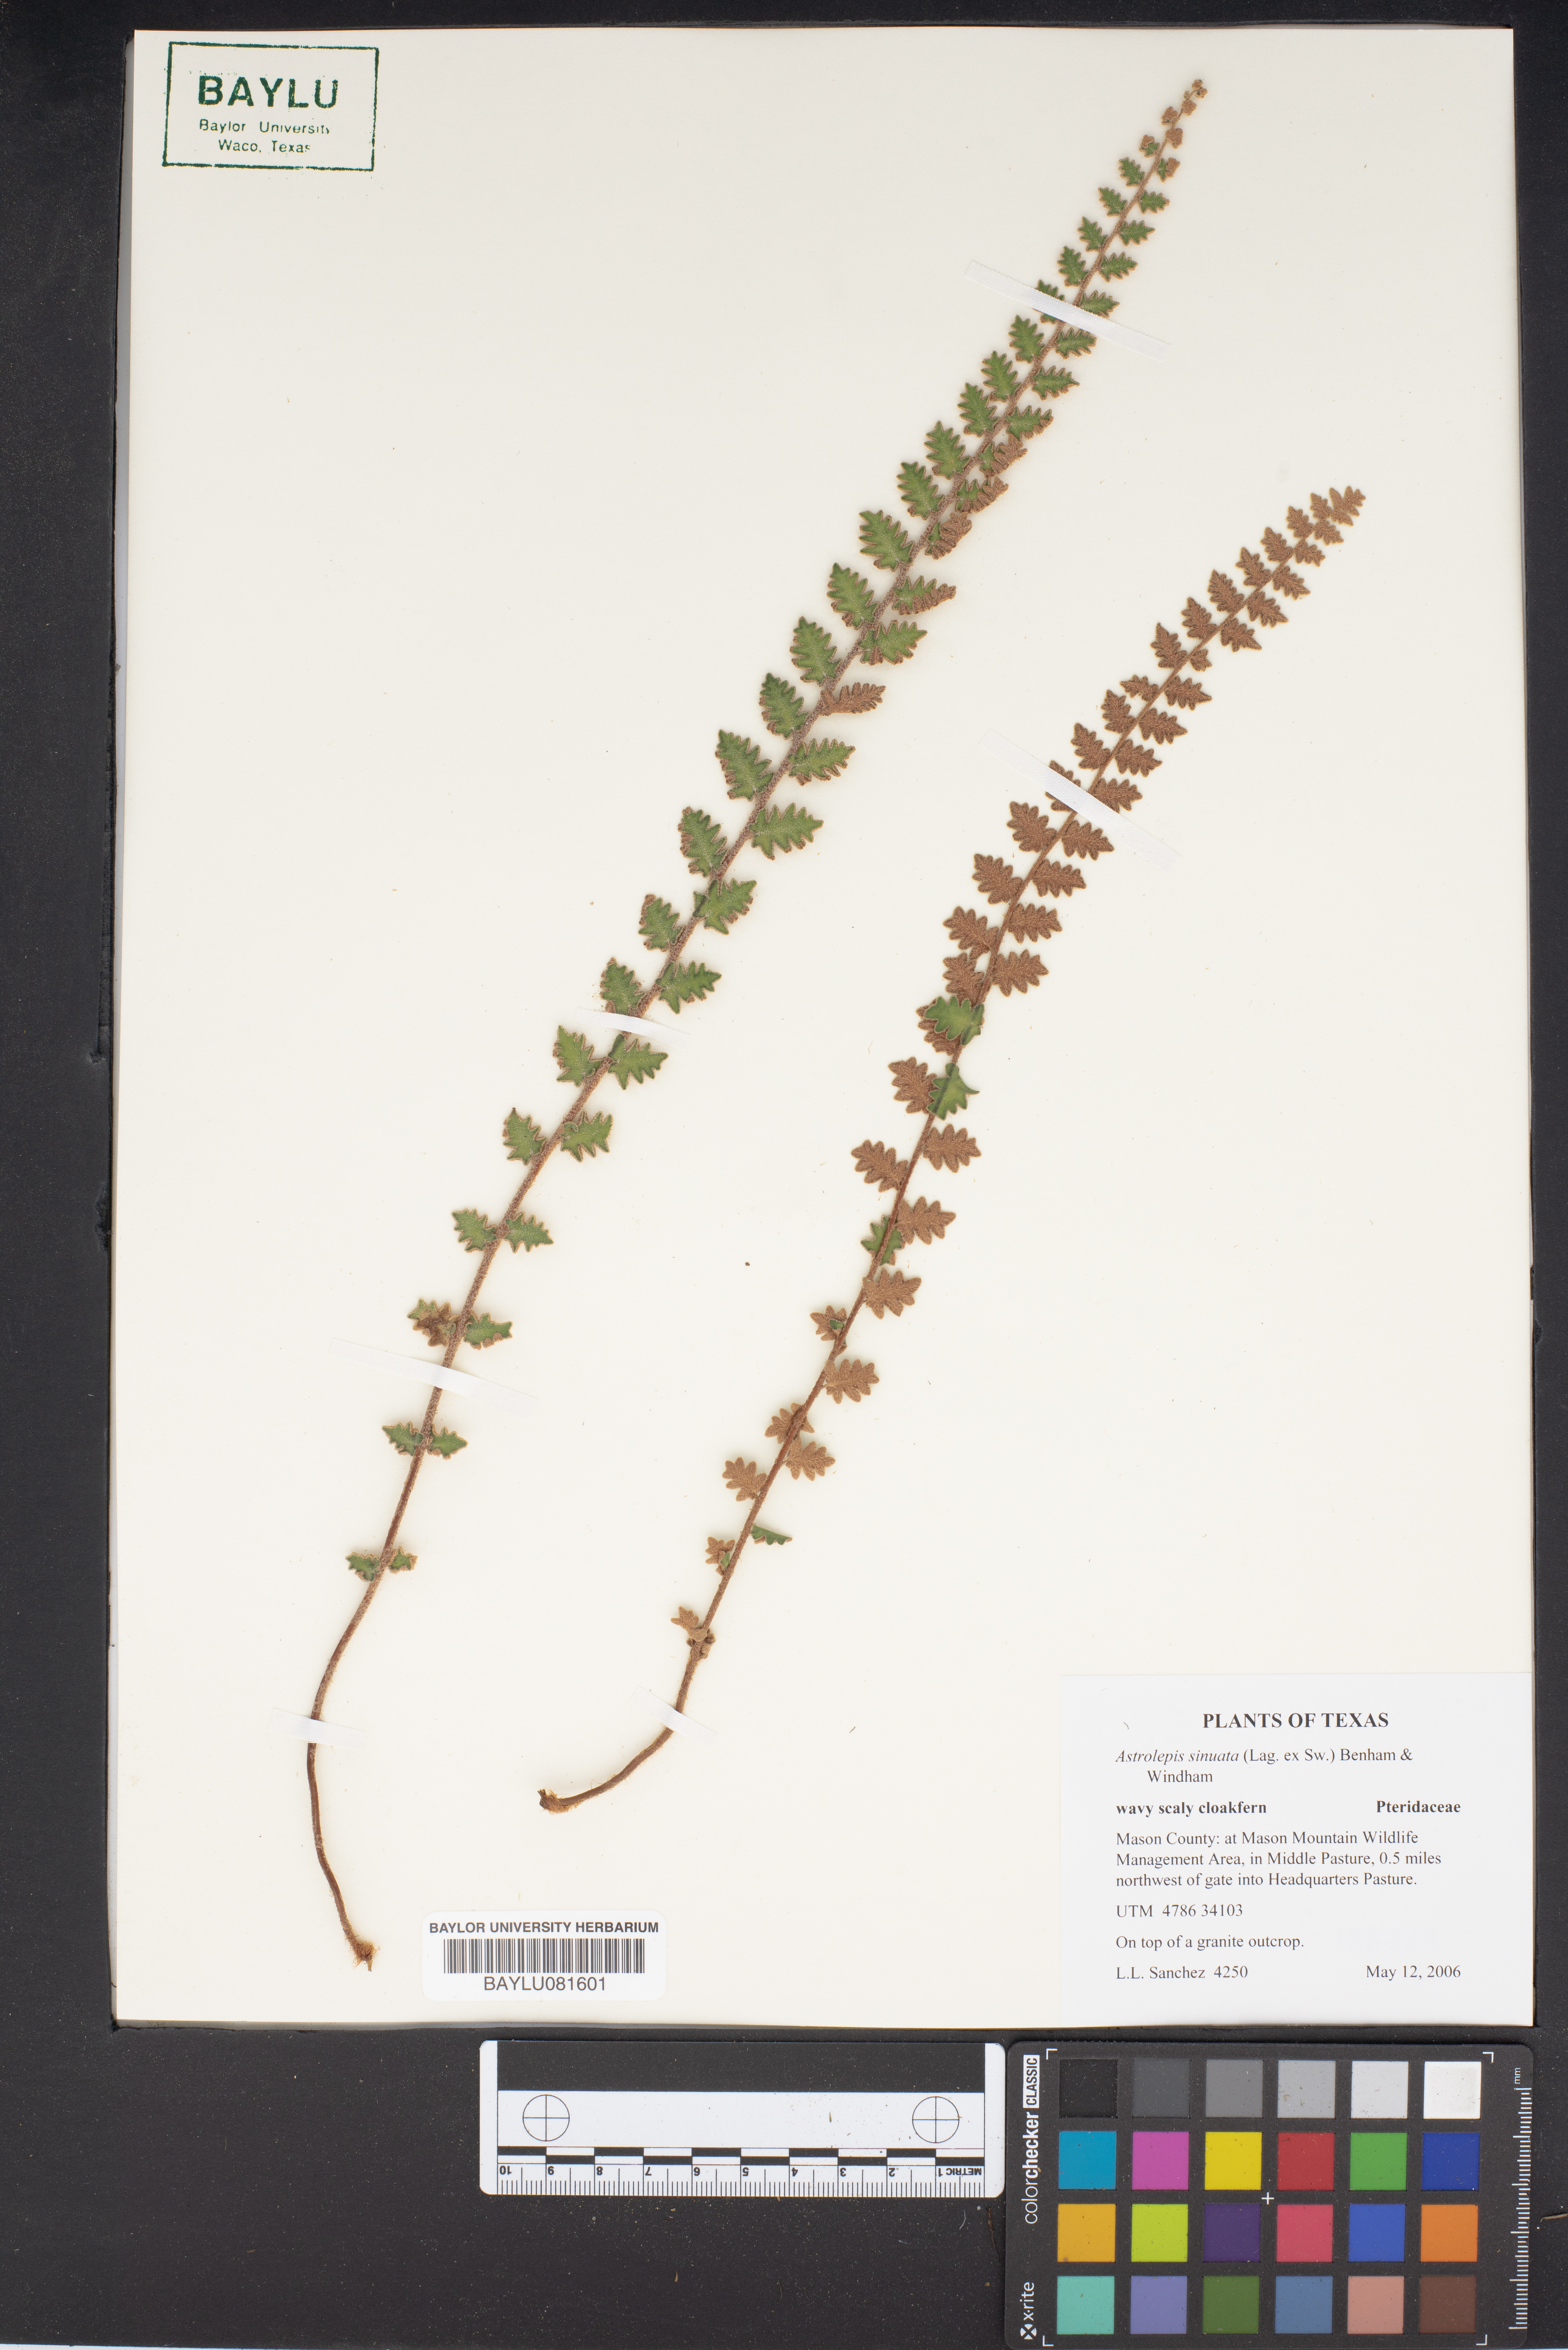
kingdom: Plantae
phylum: Tracheophyta
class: Polypodiopsida
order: Polypodiales
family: Pteridaceae
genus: Astrolepis
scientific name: Astrolepis sinuata
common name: Wavy scaly cloakfern
